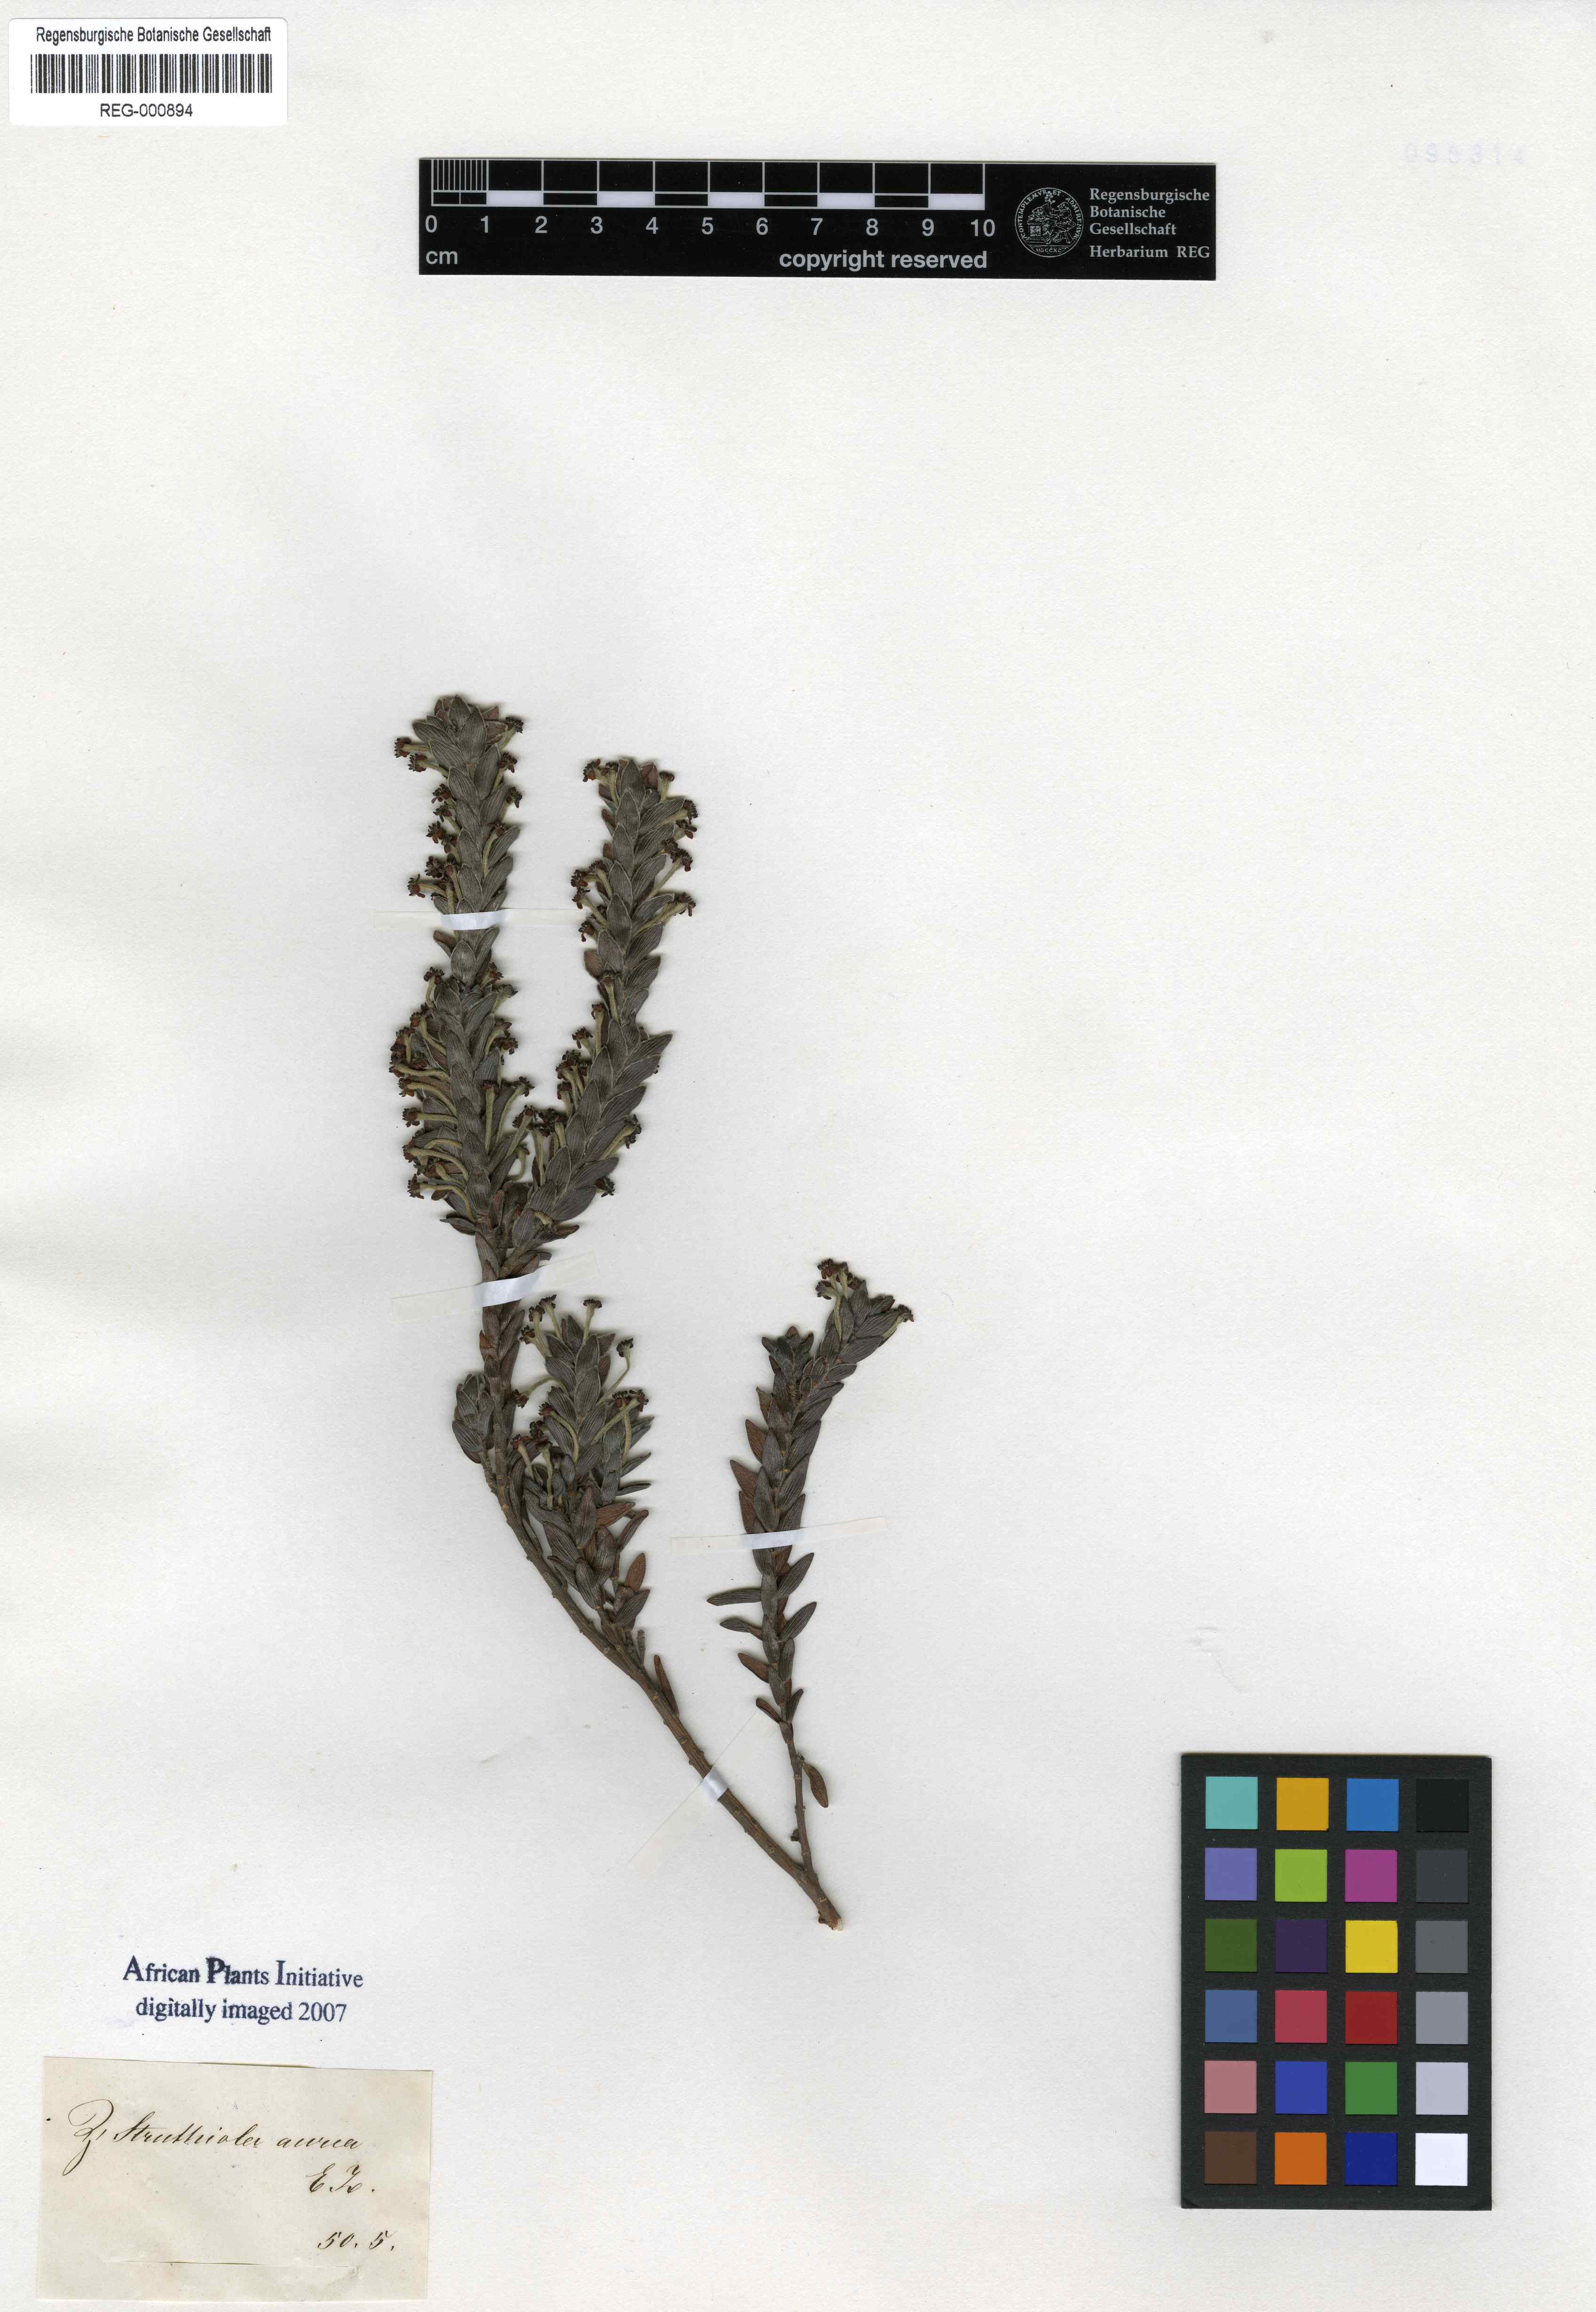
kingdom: Plantae
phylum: Tracheophyta
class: Magnoliopsida
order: Malvales
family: Thymelaeaceae
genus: Struthiola
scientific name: Struthiola argentea
